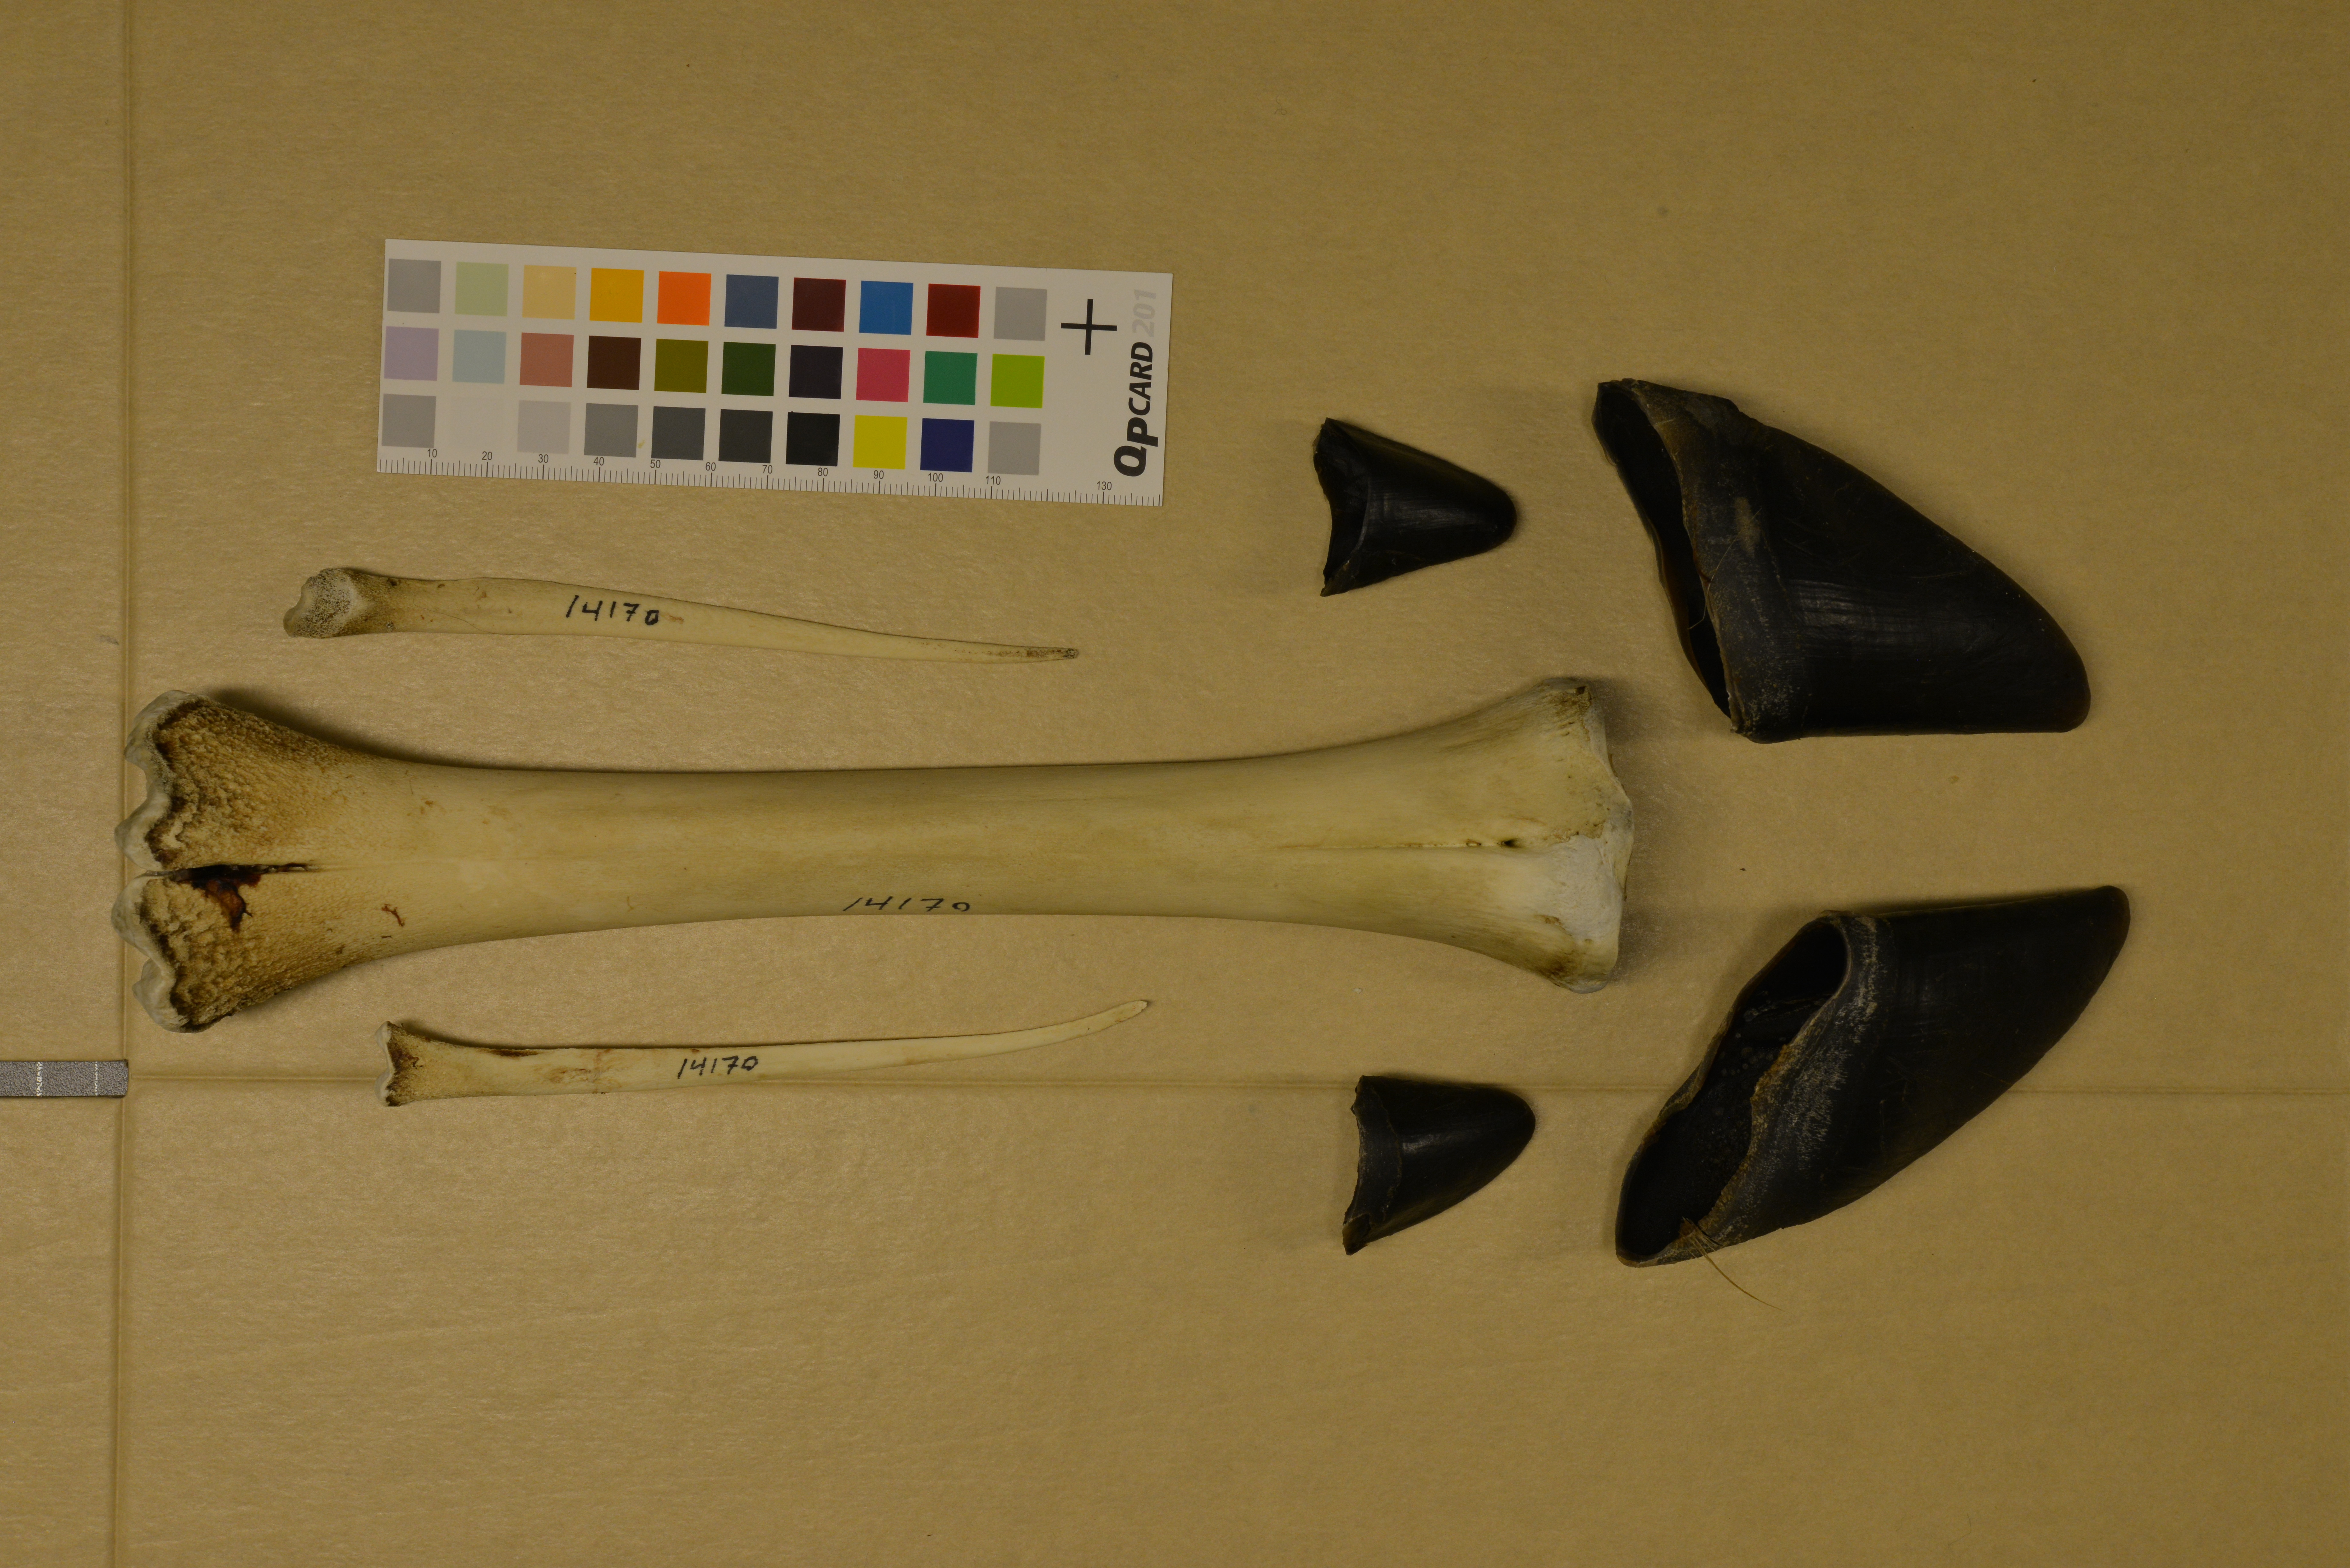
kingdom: Animalia
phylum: Chordata
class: Mammalia
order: Artiodactyla
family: Cervidae
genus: Alces
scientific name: Alces alces
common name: Moose
